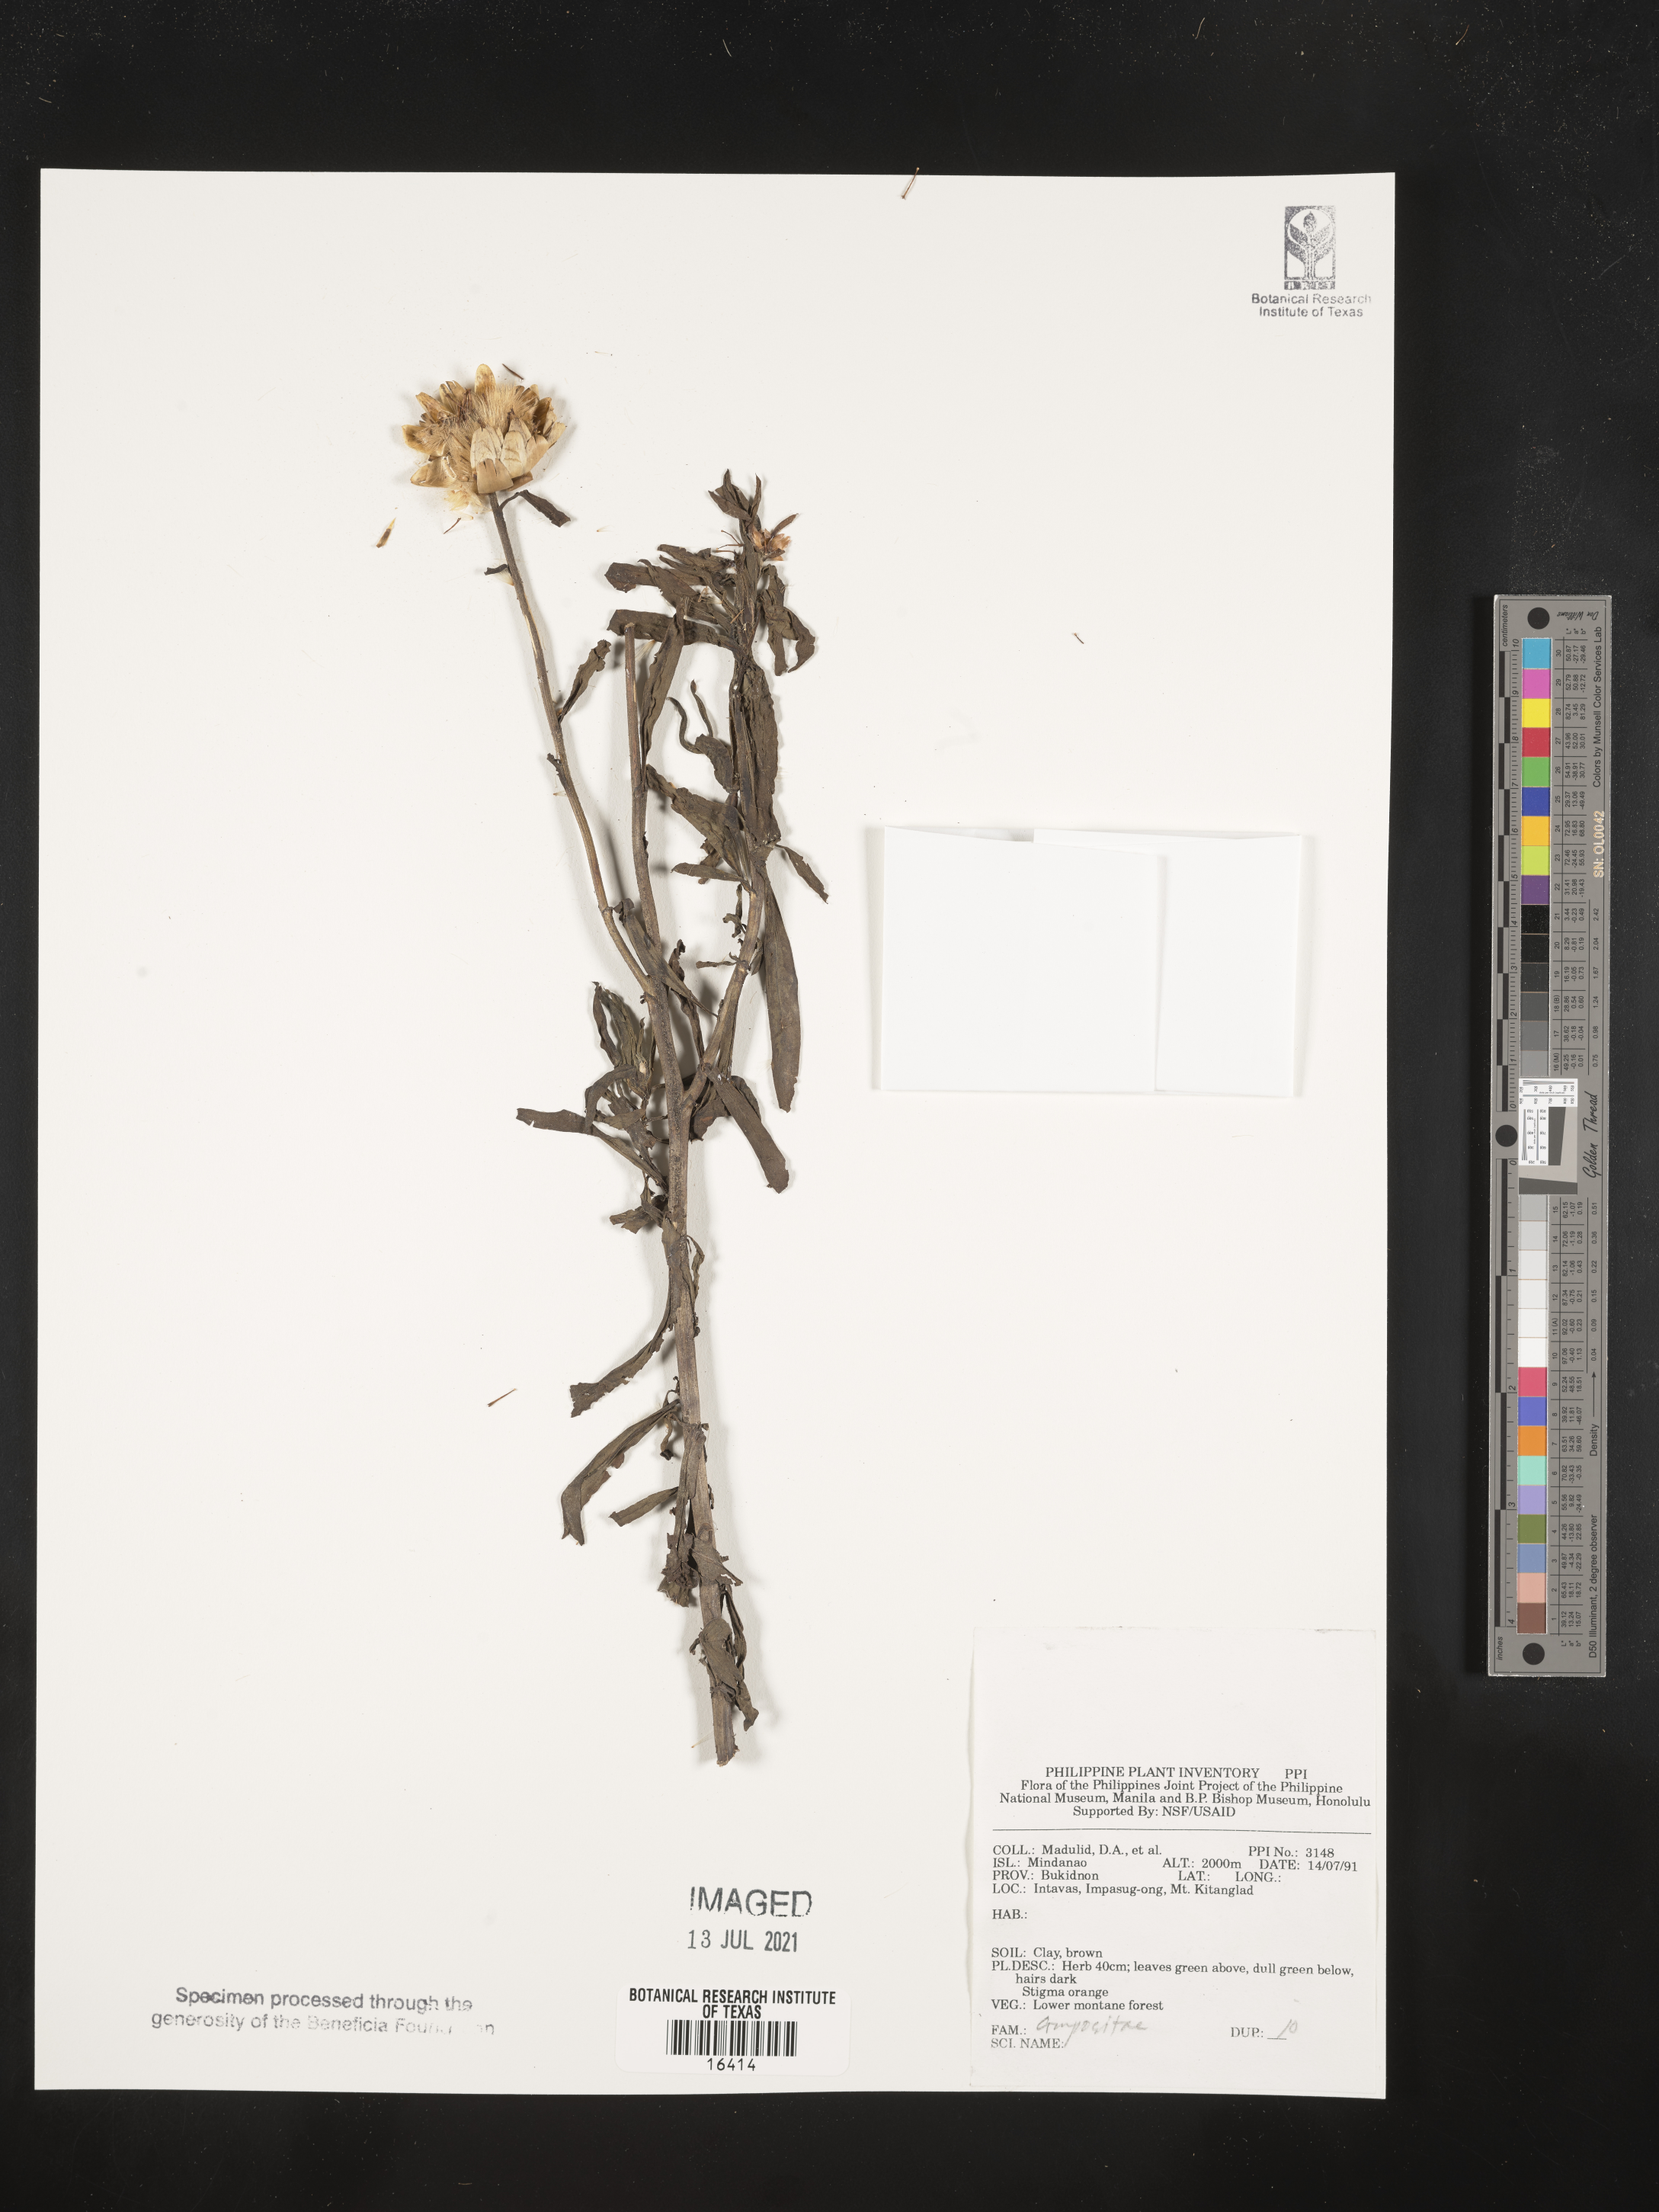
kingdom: Plantae
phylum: Tracheophyta
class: Magnoliopsida
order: Asterales
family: Asteraceae
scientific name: Asteraceae
